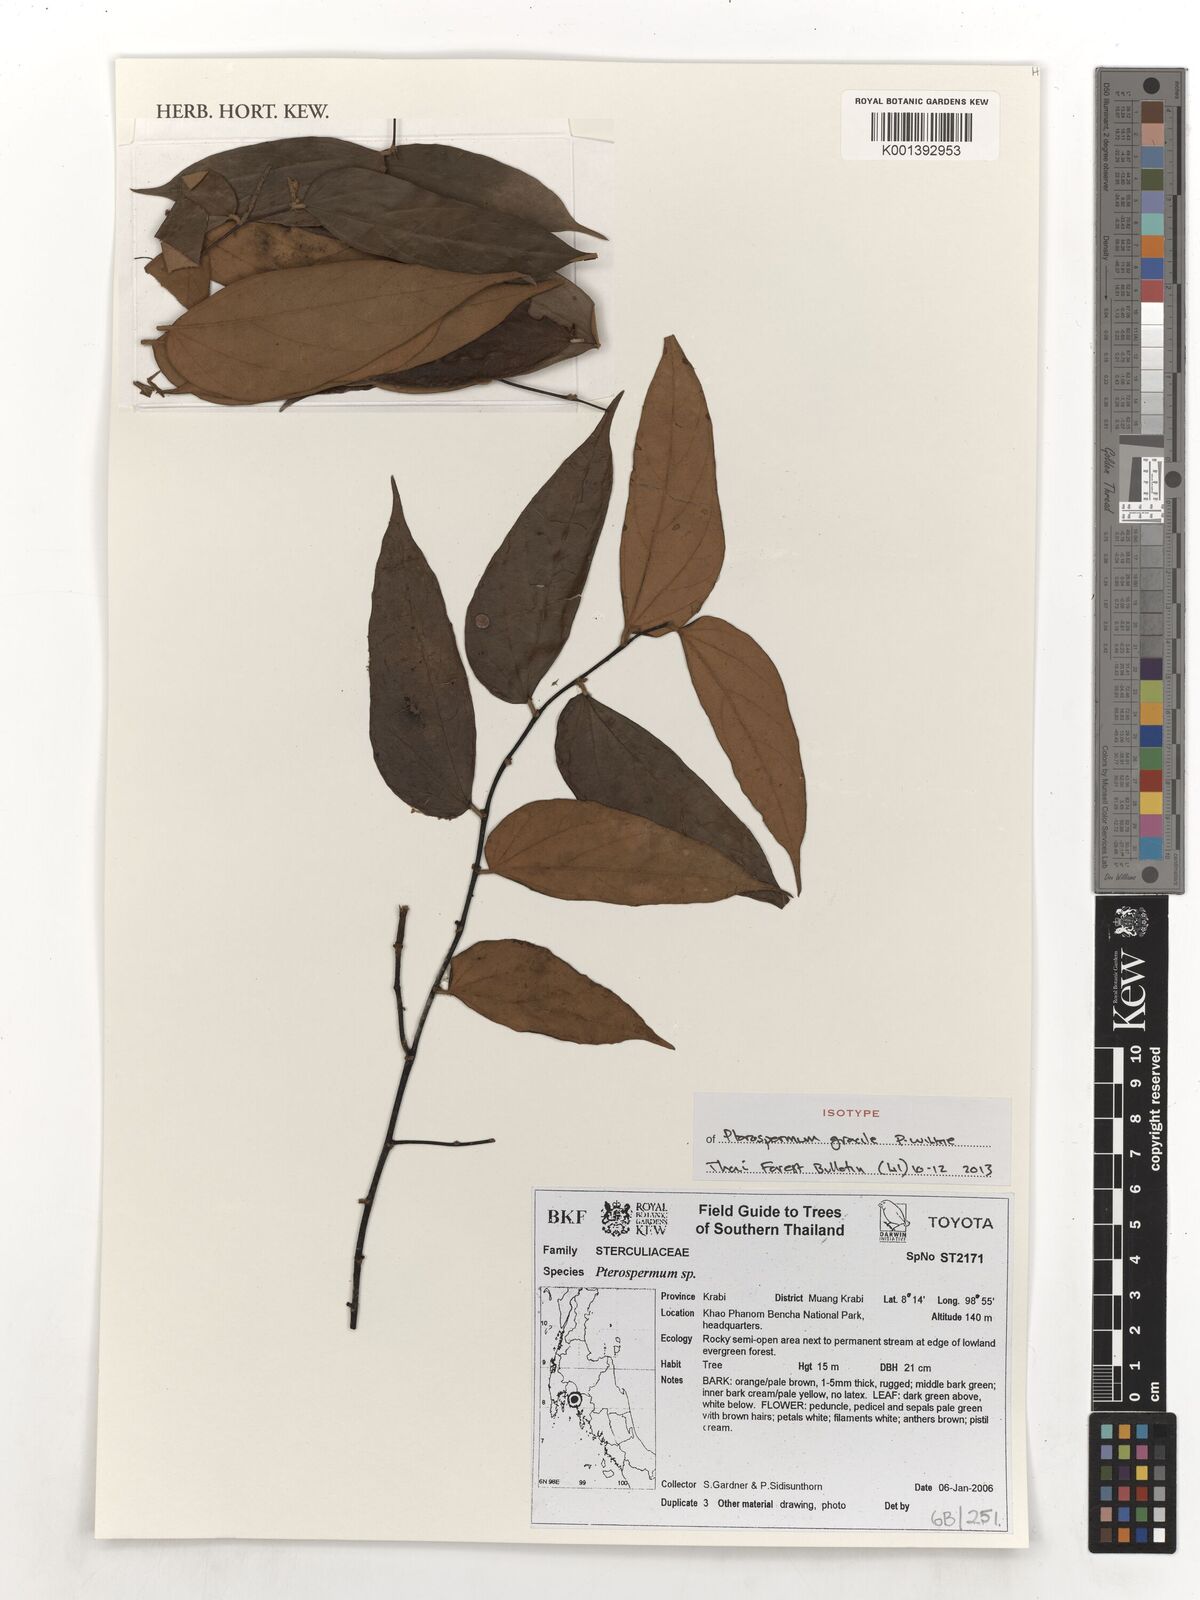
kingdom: Plantae
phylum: Tracheophyta
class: Magnoliopsida
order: Malvales
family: Malvaceae
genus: Pterospermum
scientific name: Pterospermum wilkieanum
